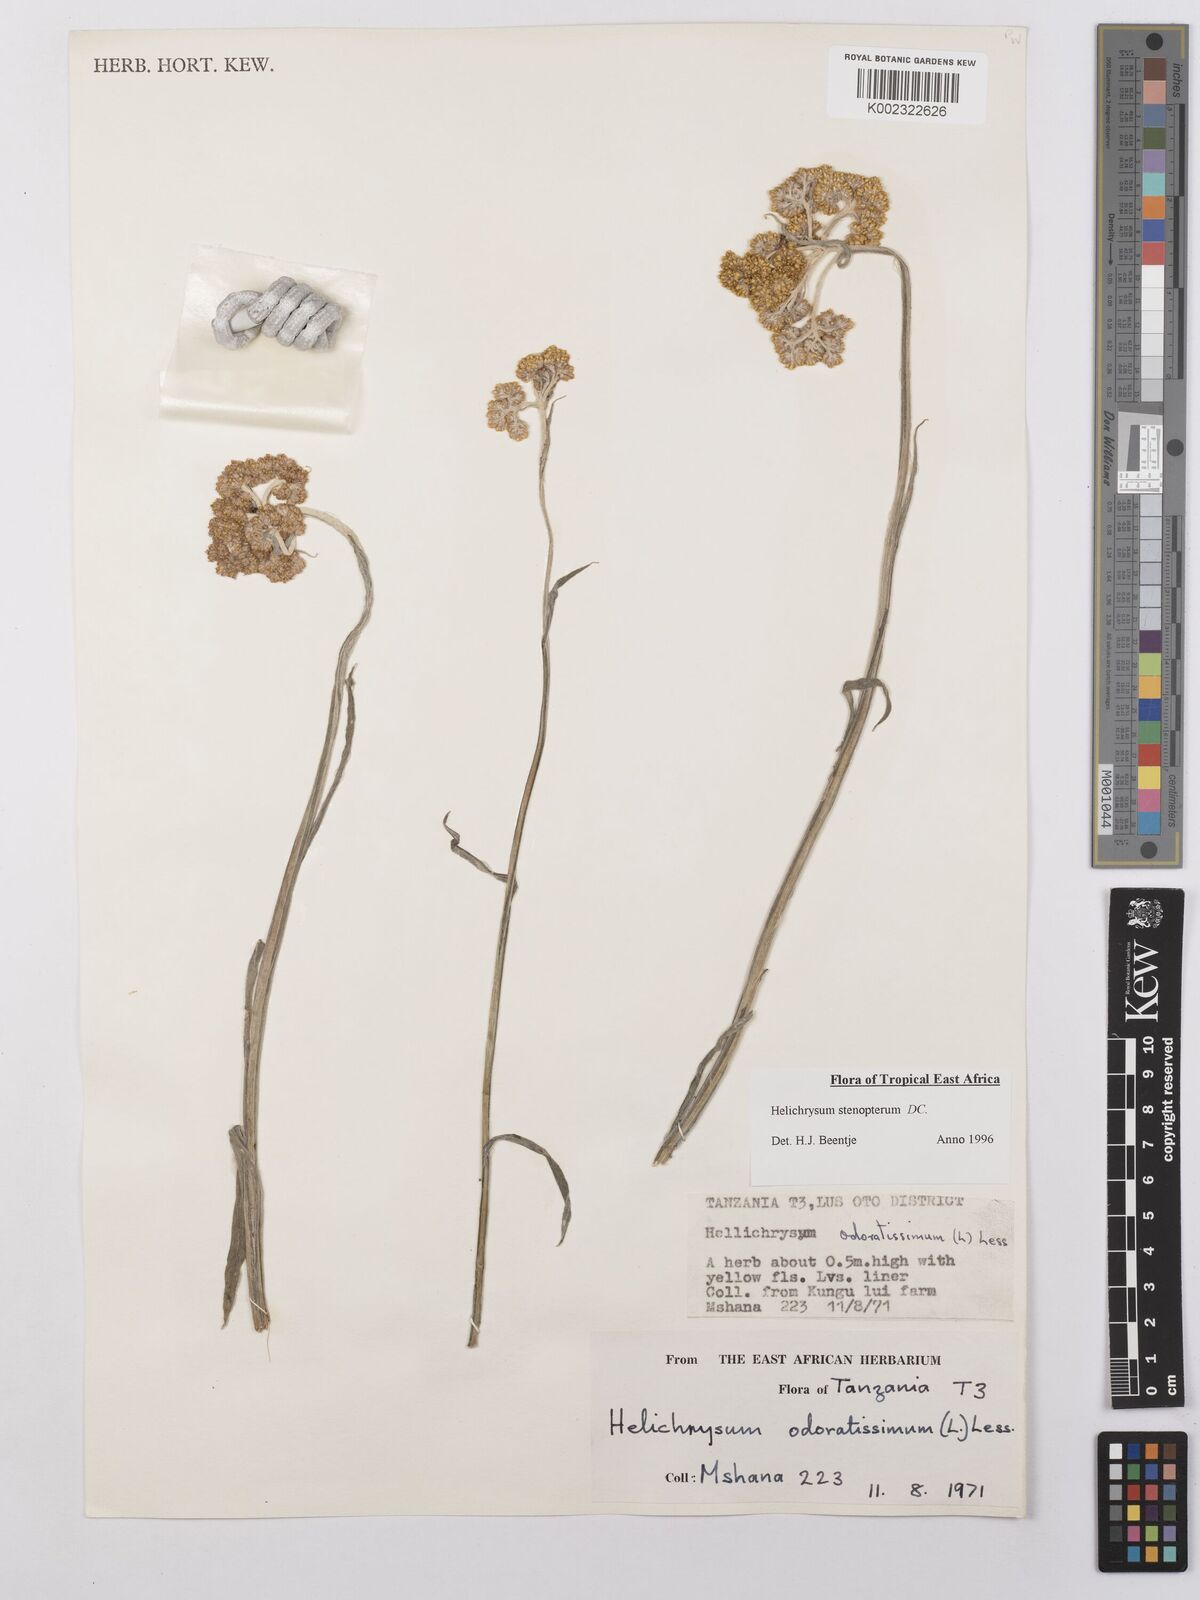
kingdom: Plantae
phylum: Tracheophyta
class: Magnoliopsida
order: Asterales
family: Asteraceae
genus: Helichrysum
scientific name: Helichrysum stenopterum
